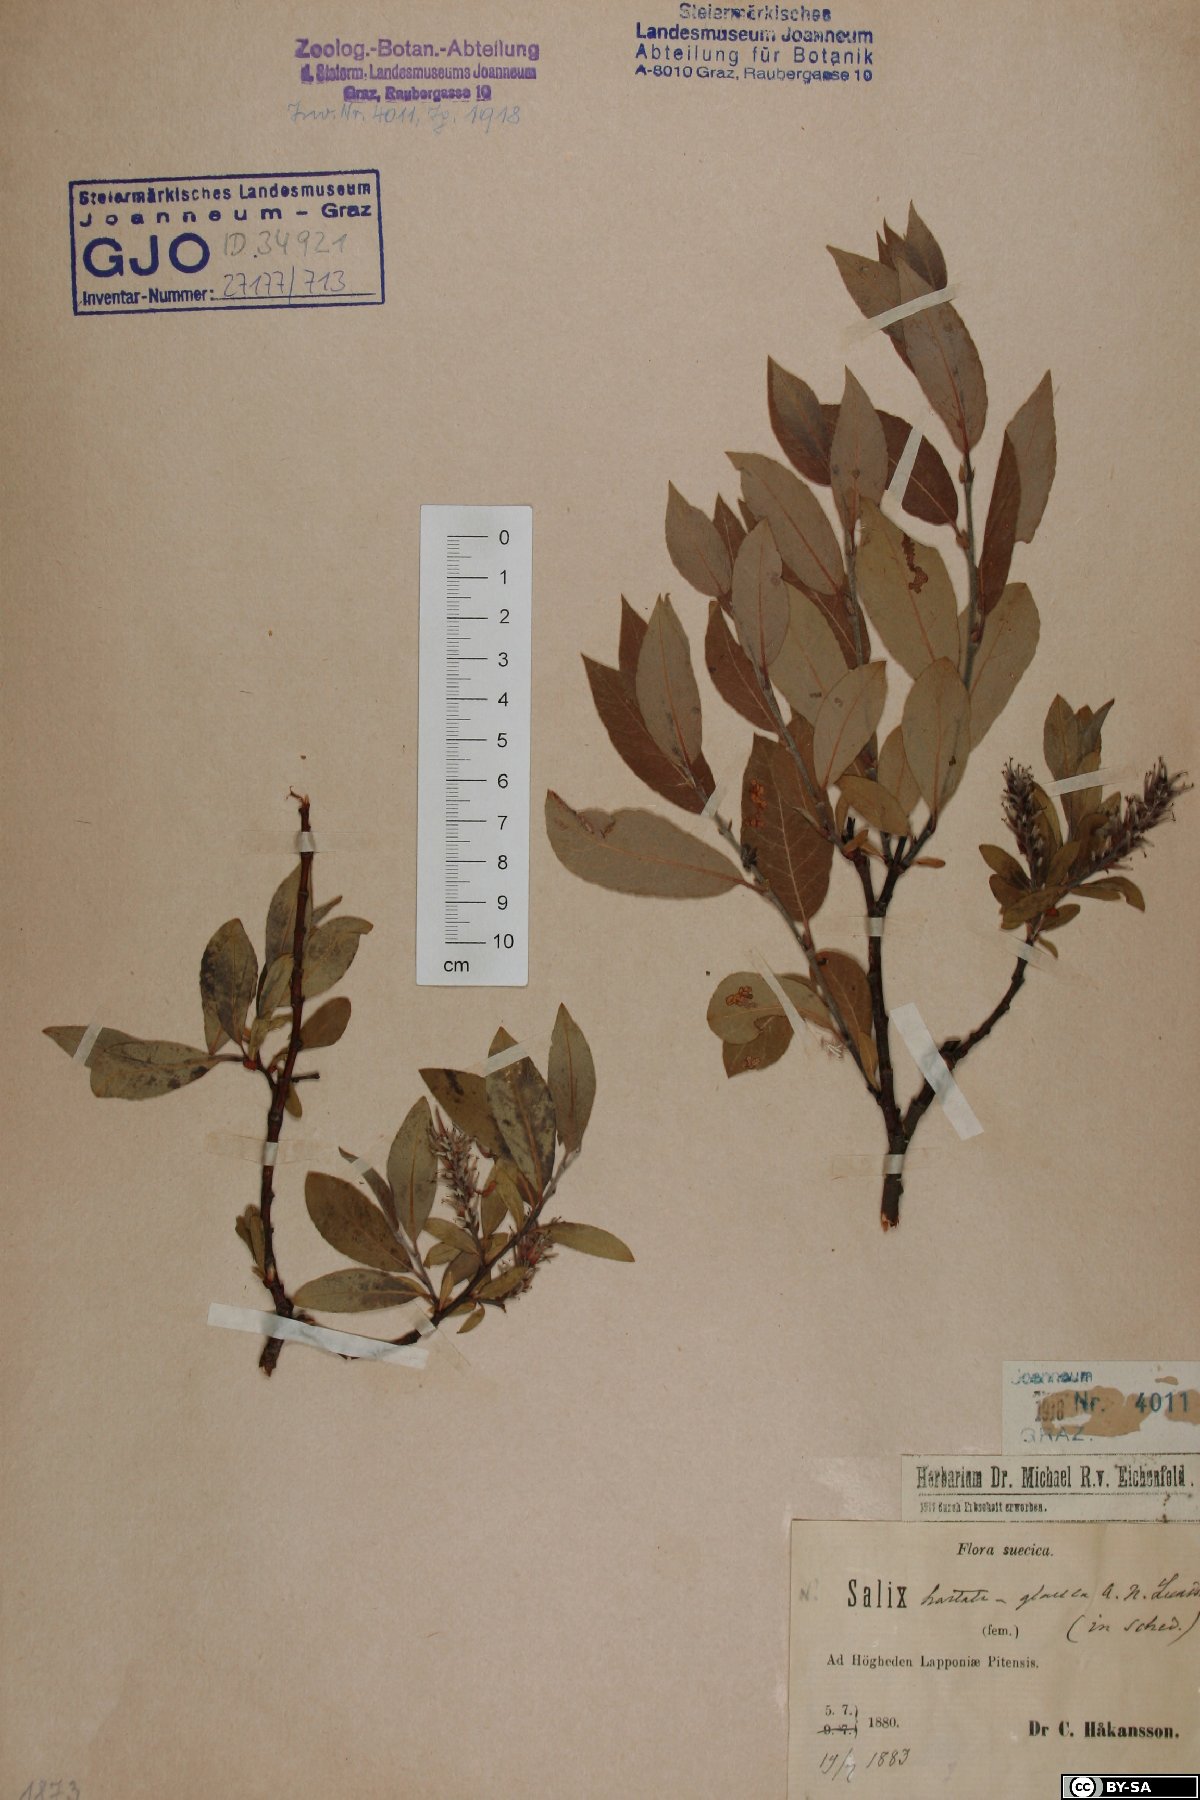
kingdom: Plantae
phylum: Tracheophyta
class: Magnoliopsida
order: Malpighiales
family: Salicaceae
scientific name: Salicaceae
